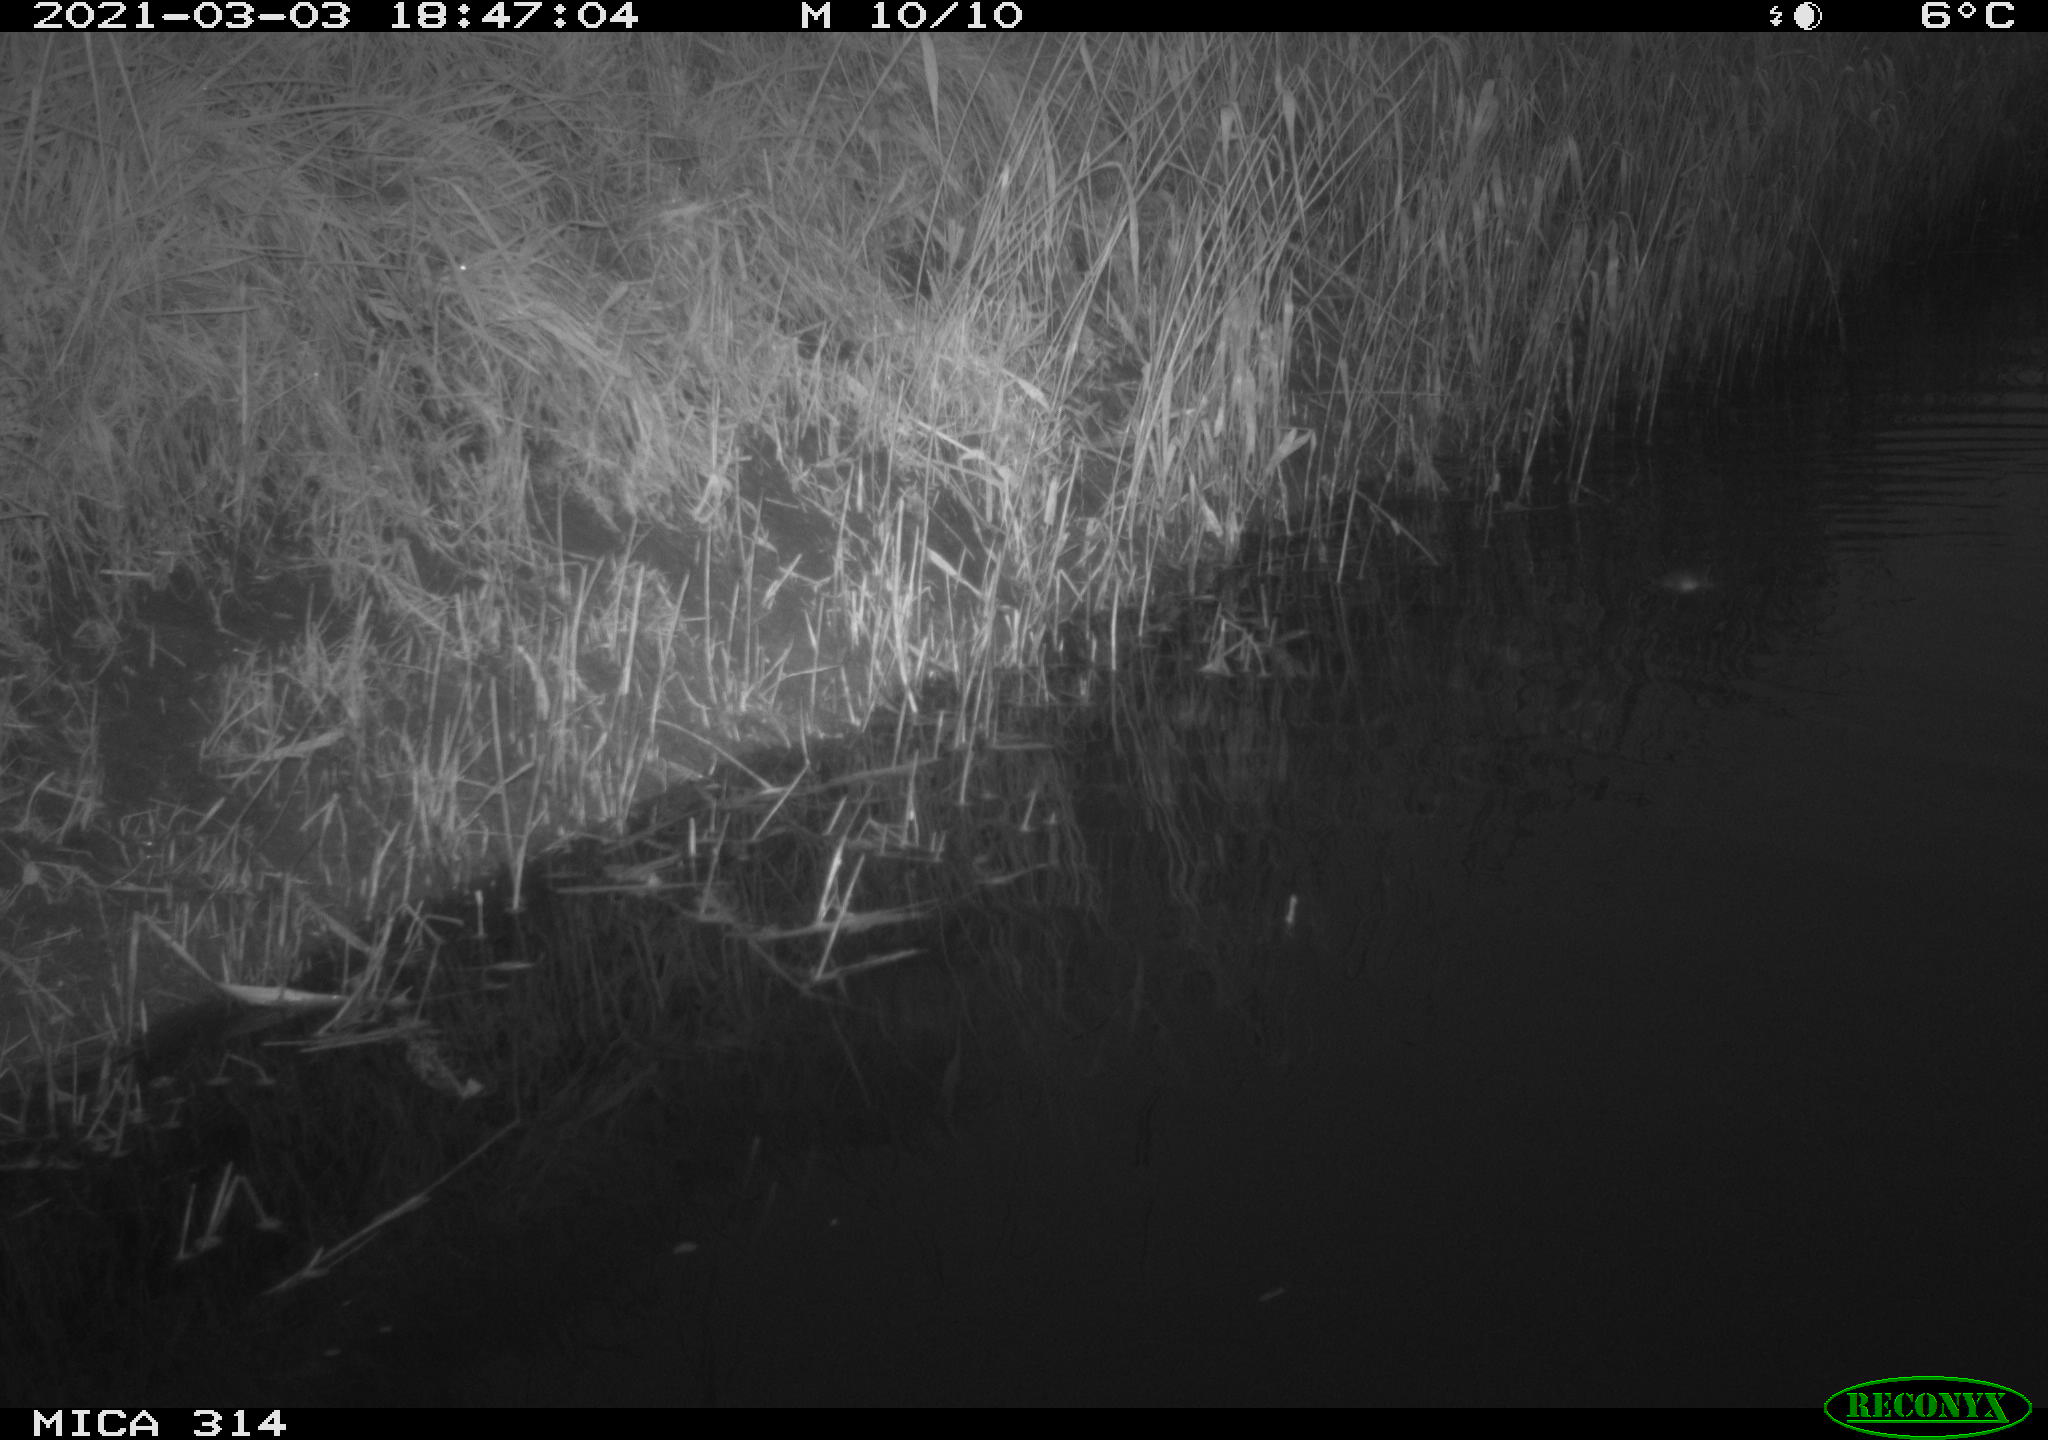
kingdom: Animalia
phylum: Chordata
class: Aves
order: Anseriformes
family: Anatidae
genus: Anas
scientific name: Anas platyrhynchos
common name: Mallard
